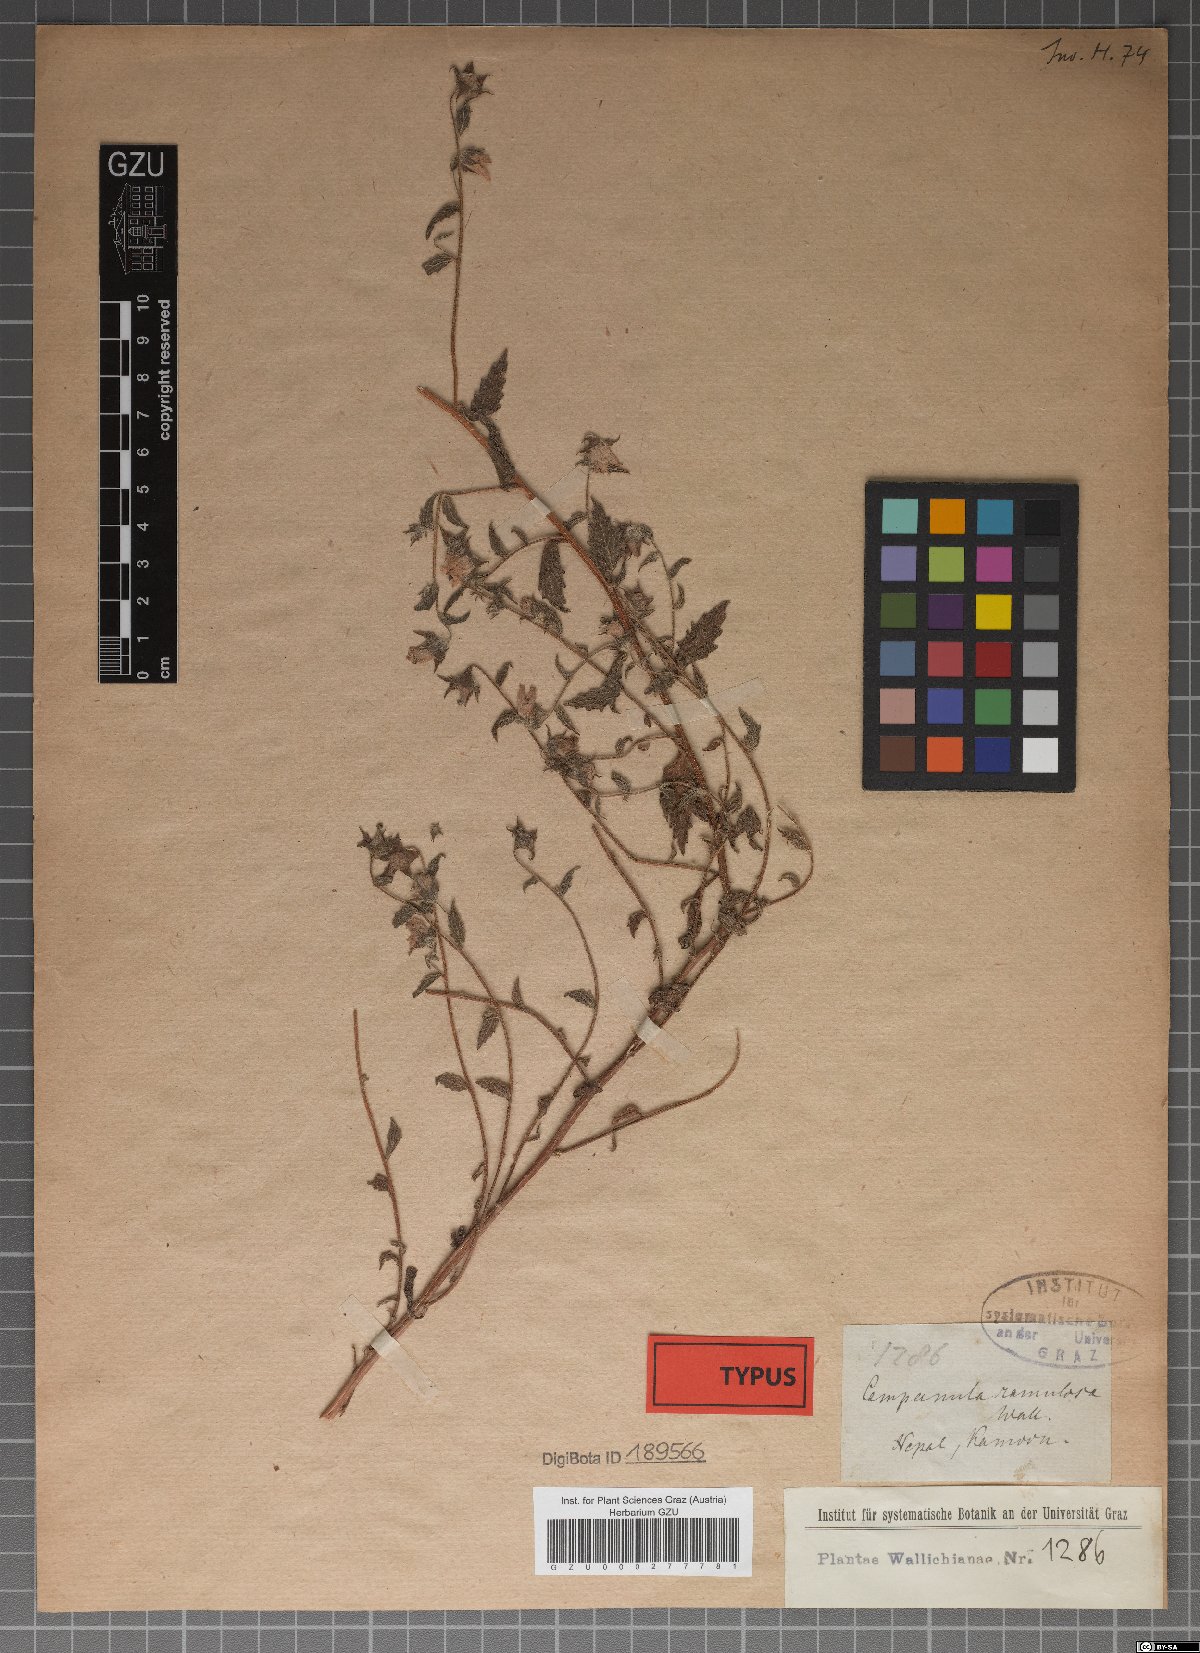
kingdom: Plantae
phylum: Tracheophyta
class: Magnoliopsida
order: Asterales
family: Campanulaceae
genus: Campanula
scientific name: Campanula pallida
